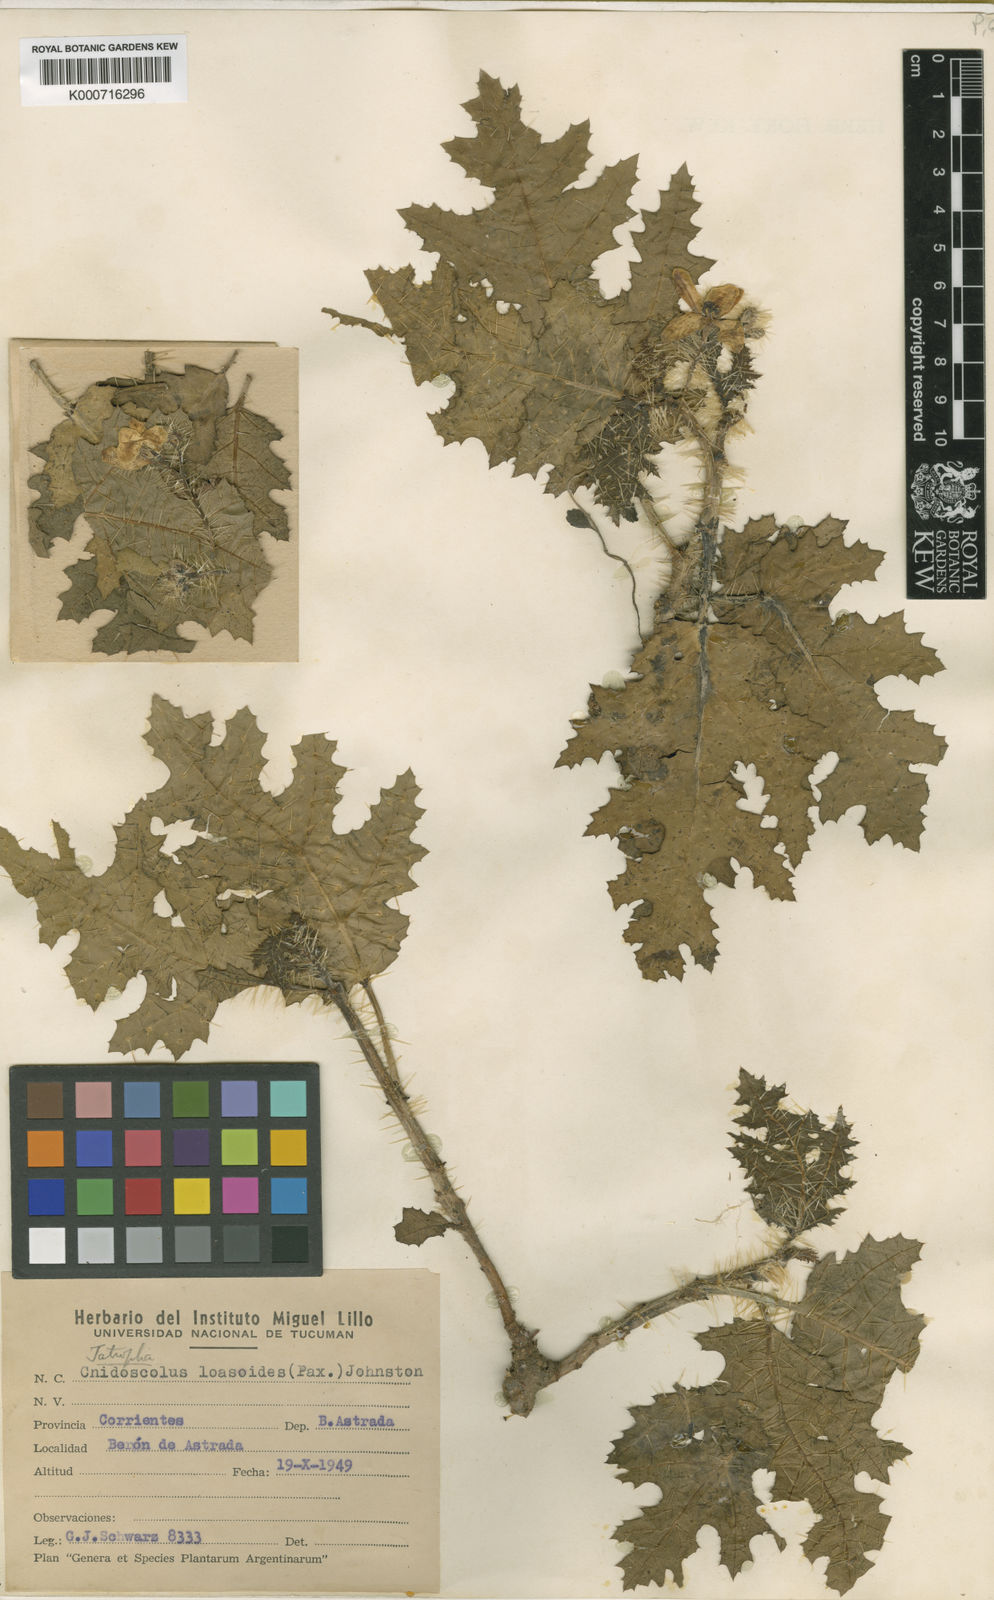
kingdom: Plantae
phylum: Tracheophyta
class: Magnoliopsida
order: Malpighiales
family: Euphorbiaceae
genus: Cnidoscolus
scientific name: Cnidoscolus loasoides
